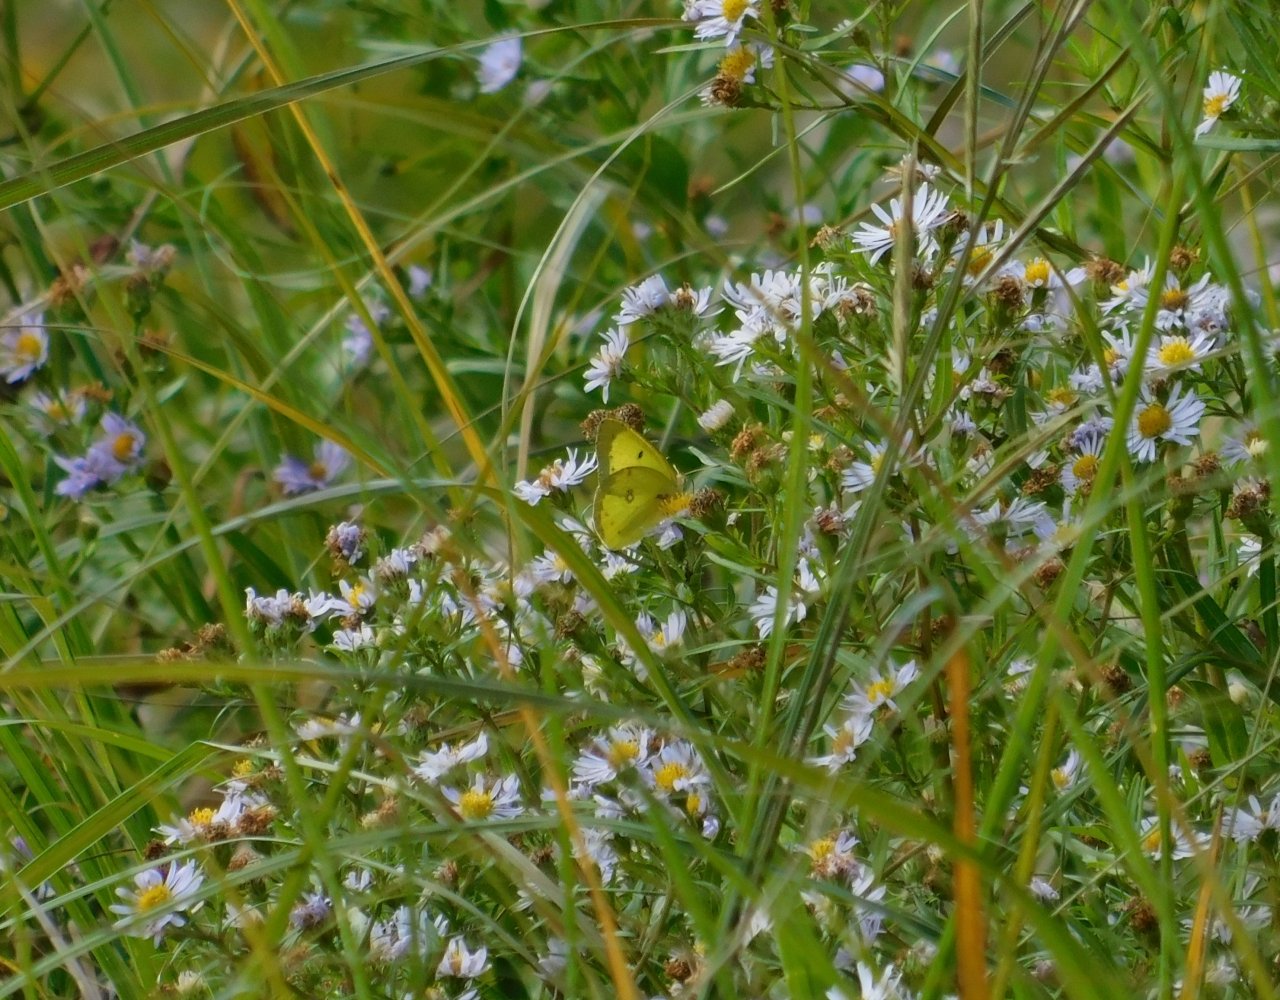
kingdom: Animalia
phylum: Arthropoda
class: Insecta
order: Lepidoptera
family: Pieridae
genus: Colias
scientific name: Colias philodice
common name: Clouded Sulphur
